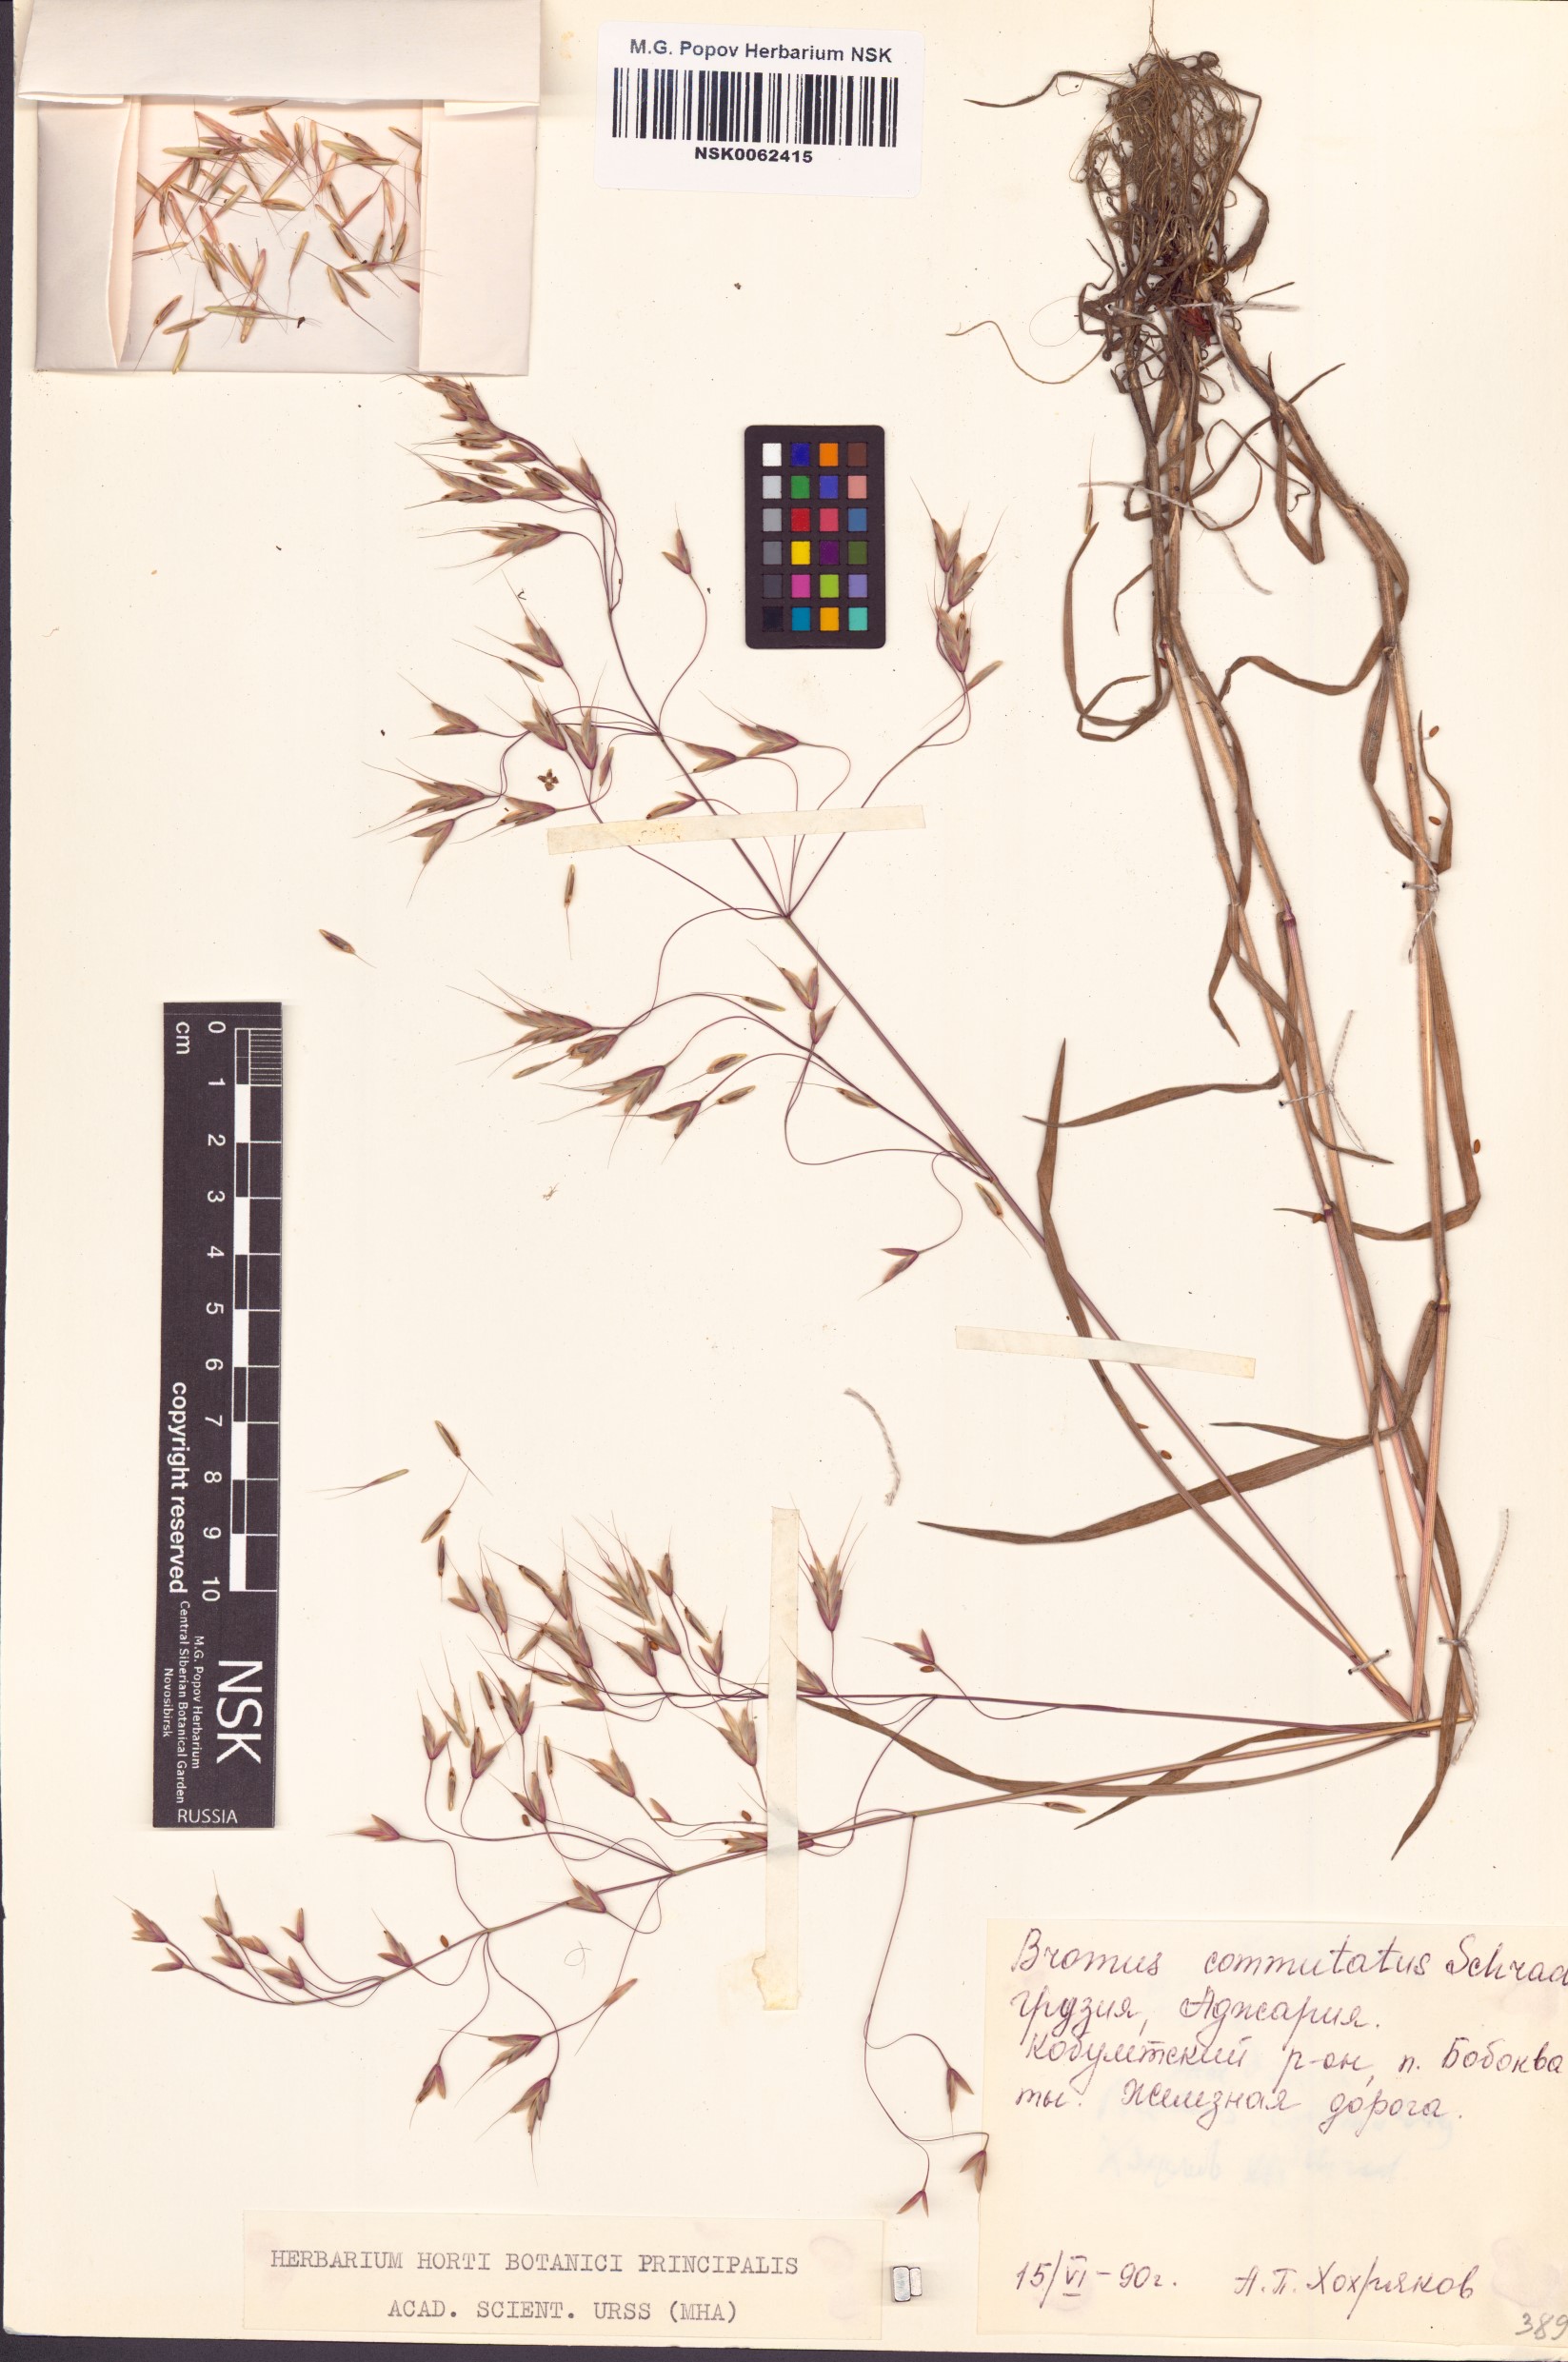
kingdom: Plantae
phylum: Tracheophyta
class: Liliopsida
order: Poales
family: Poaceae
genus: Bromus
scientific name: Bromus commutatus
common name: Meadow brome
